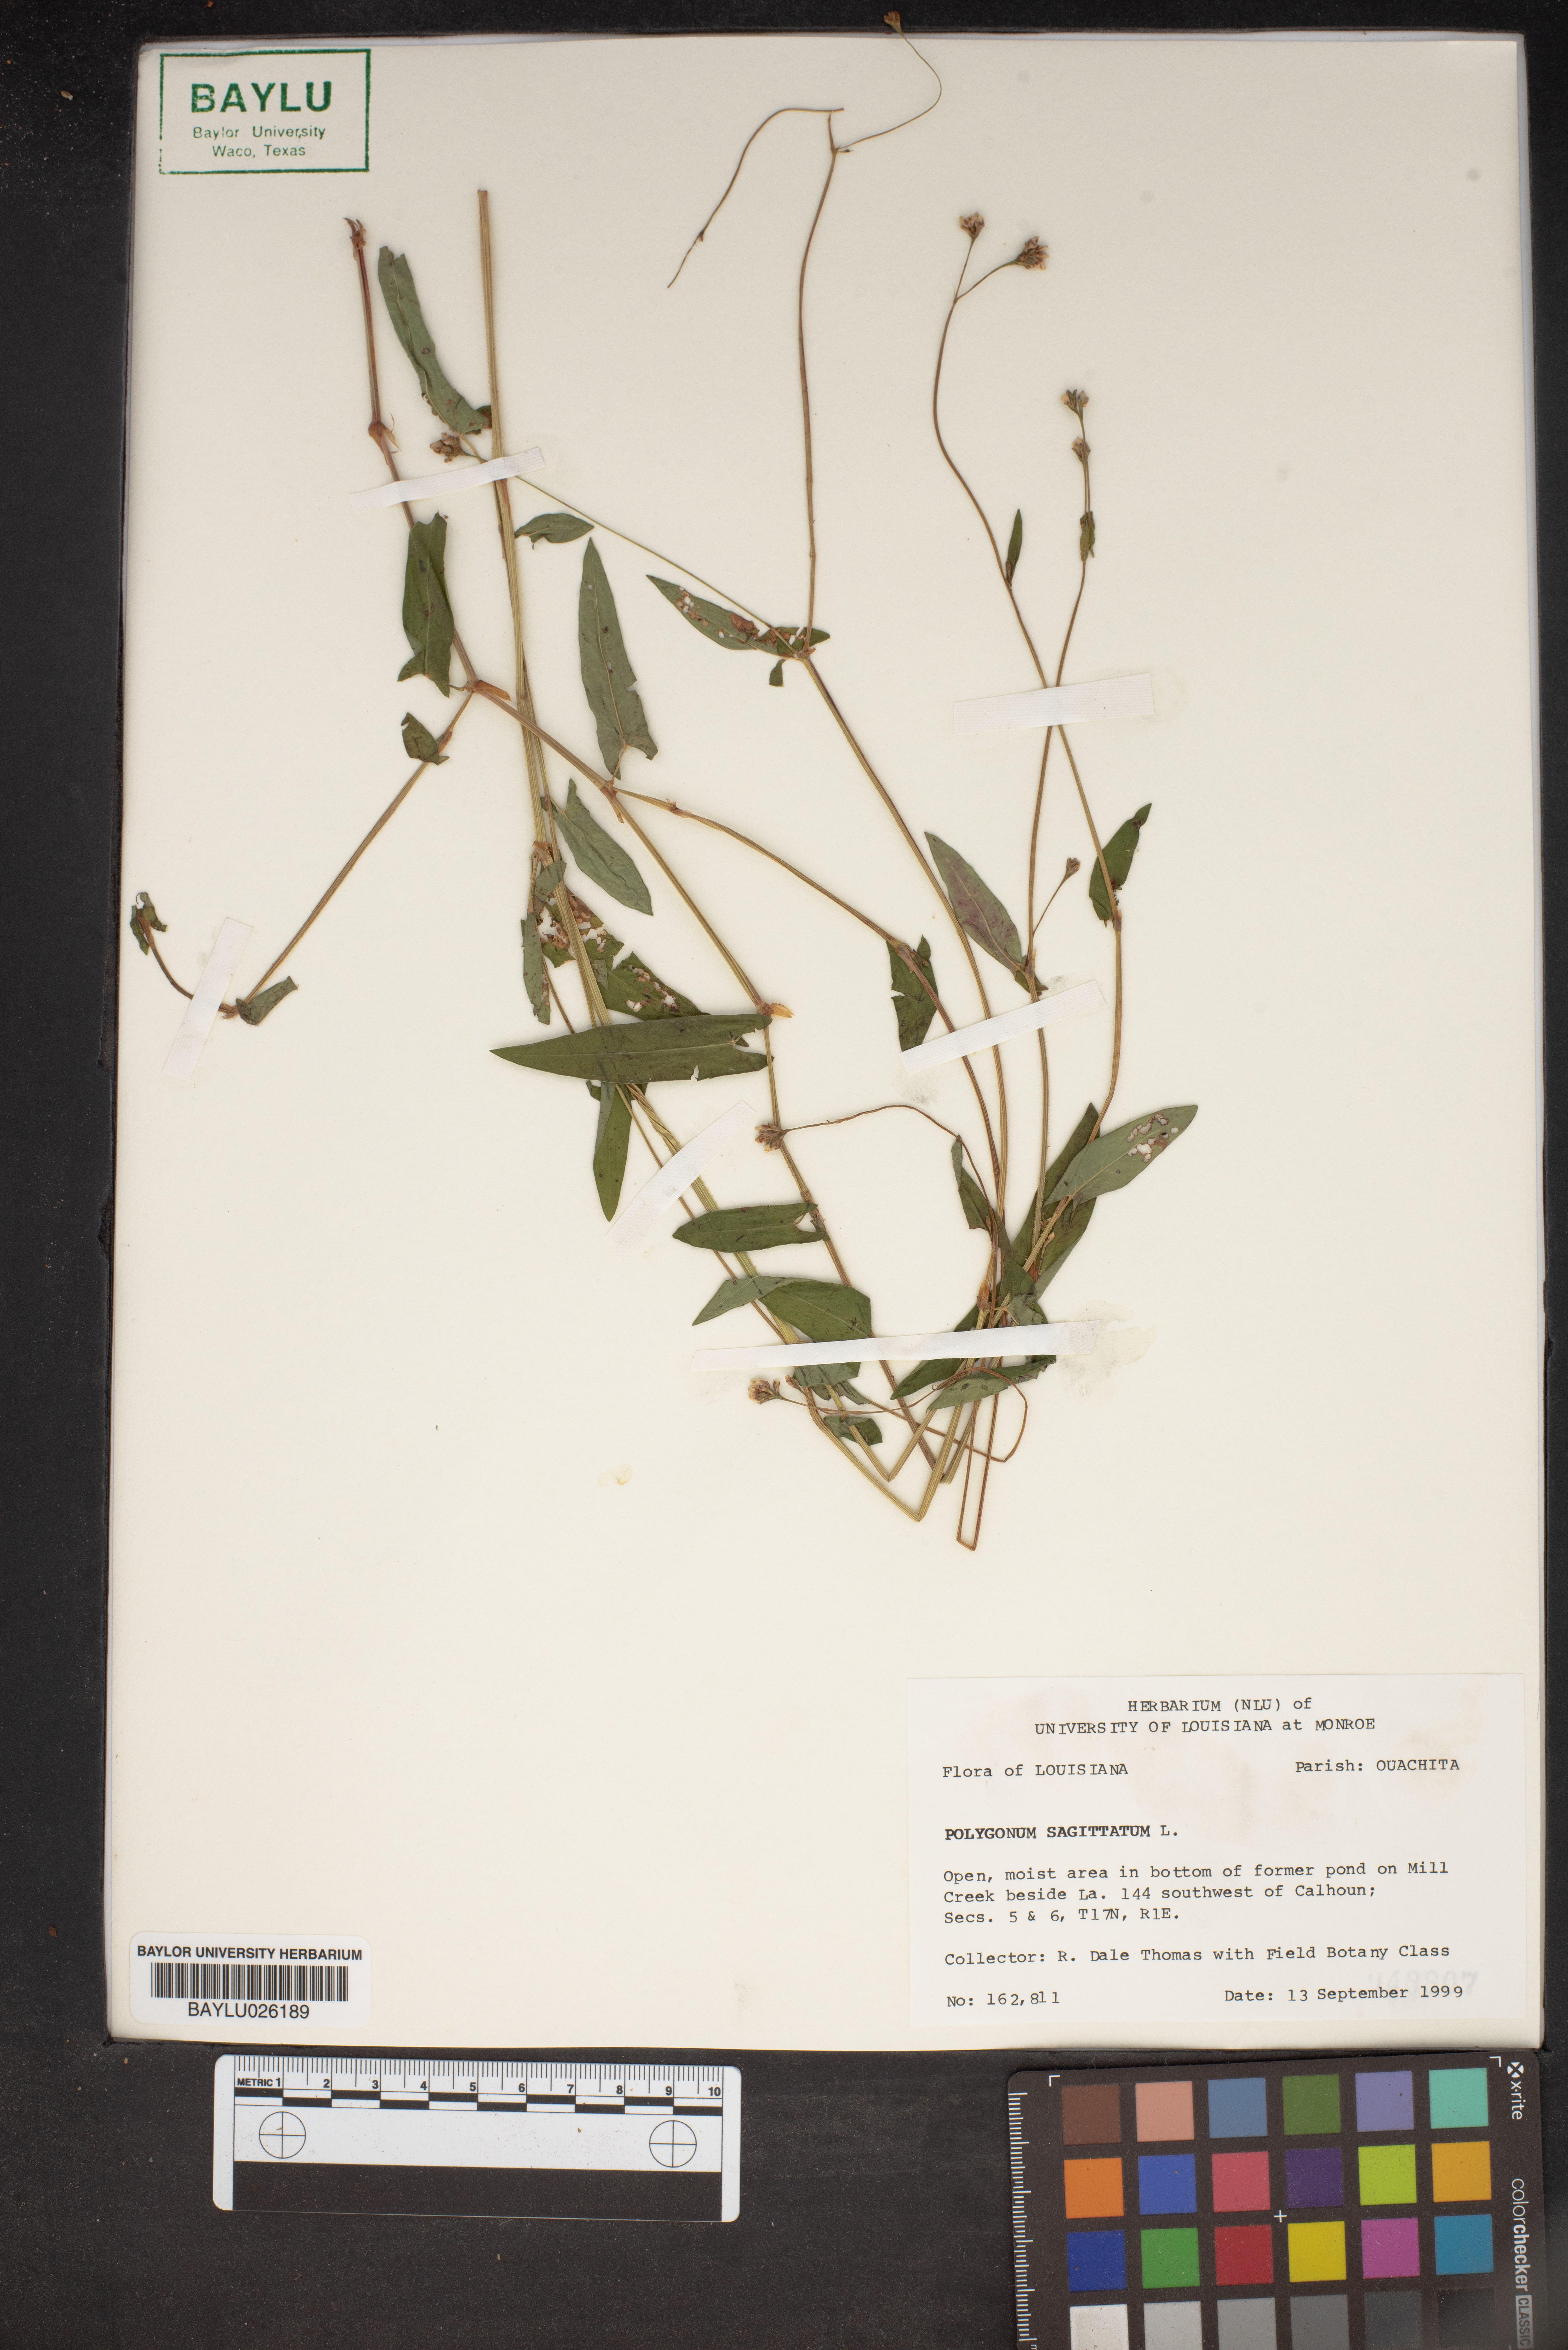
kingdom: Plantae
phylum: Tracheophyta
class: Magnoliopsida
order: Caryophyllales
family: Polygonaceae
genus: Persicaria
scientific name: Persicaria sagittata
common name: American tearthumb
